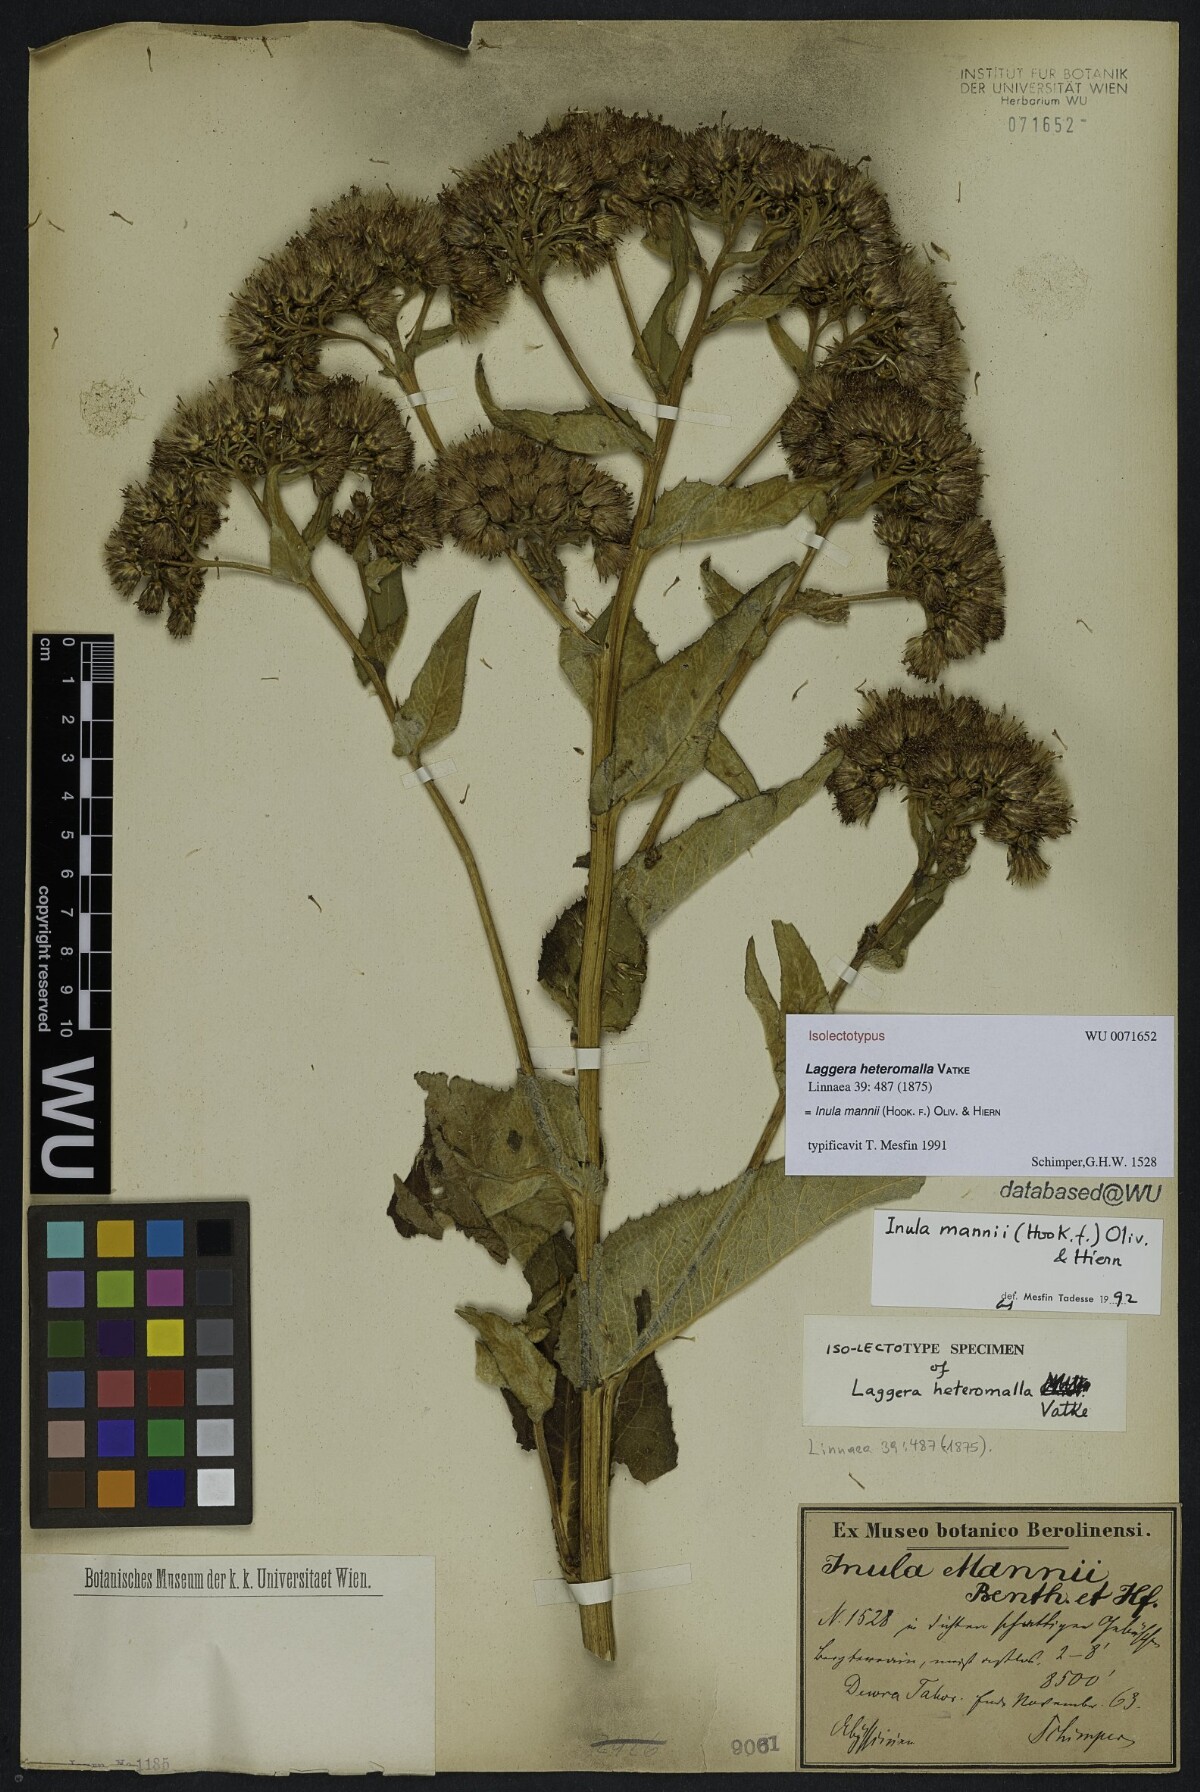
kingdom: Plantae
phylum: Tracheophyta
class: Magnoliopsida
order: Asterales
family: Asteraceae
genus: Inula
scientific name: Inula mannii
